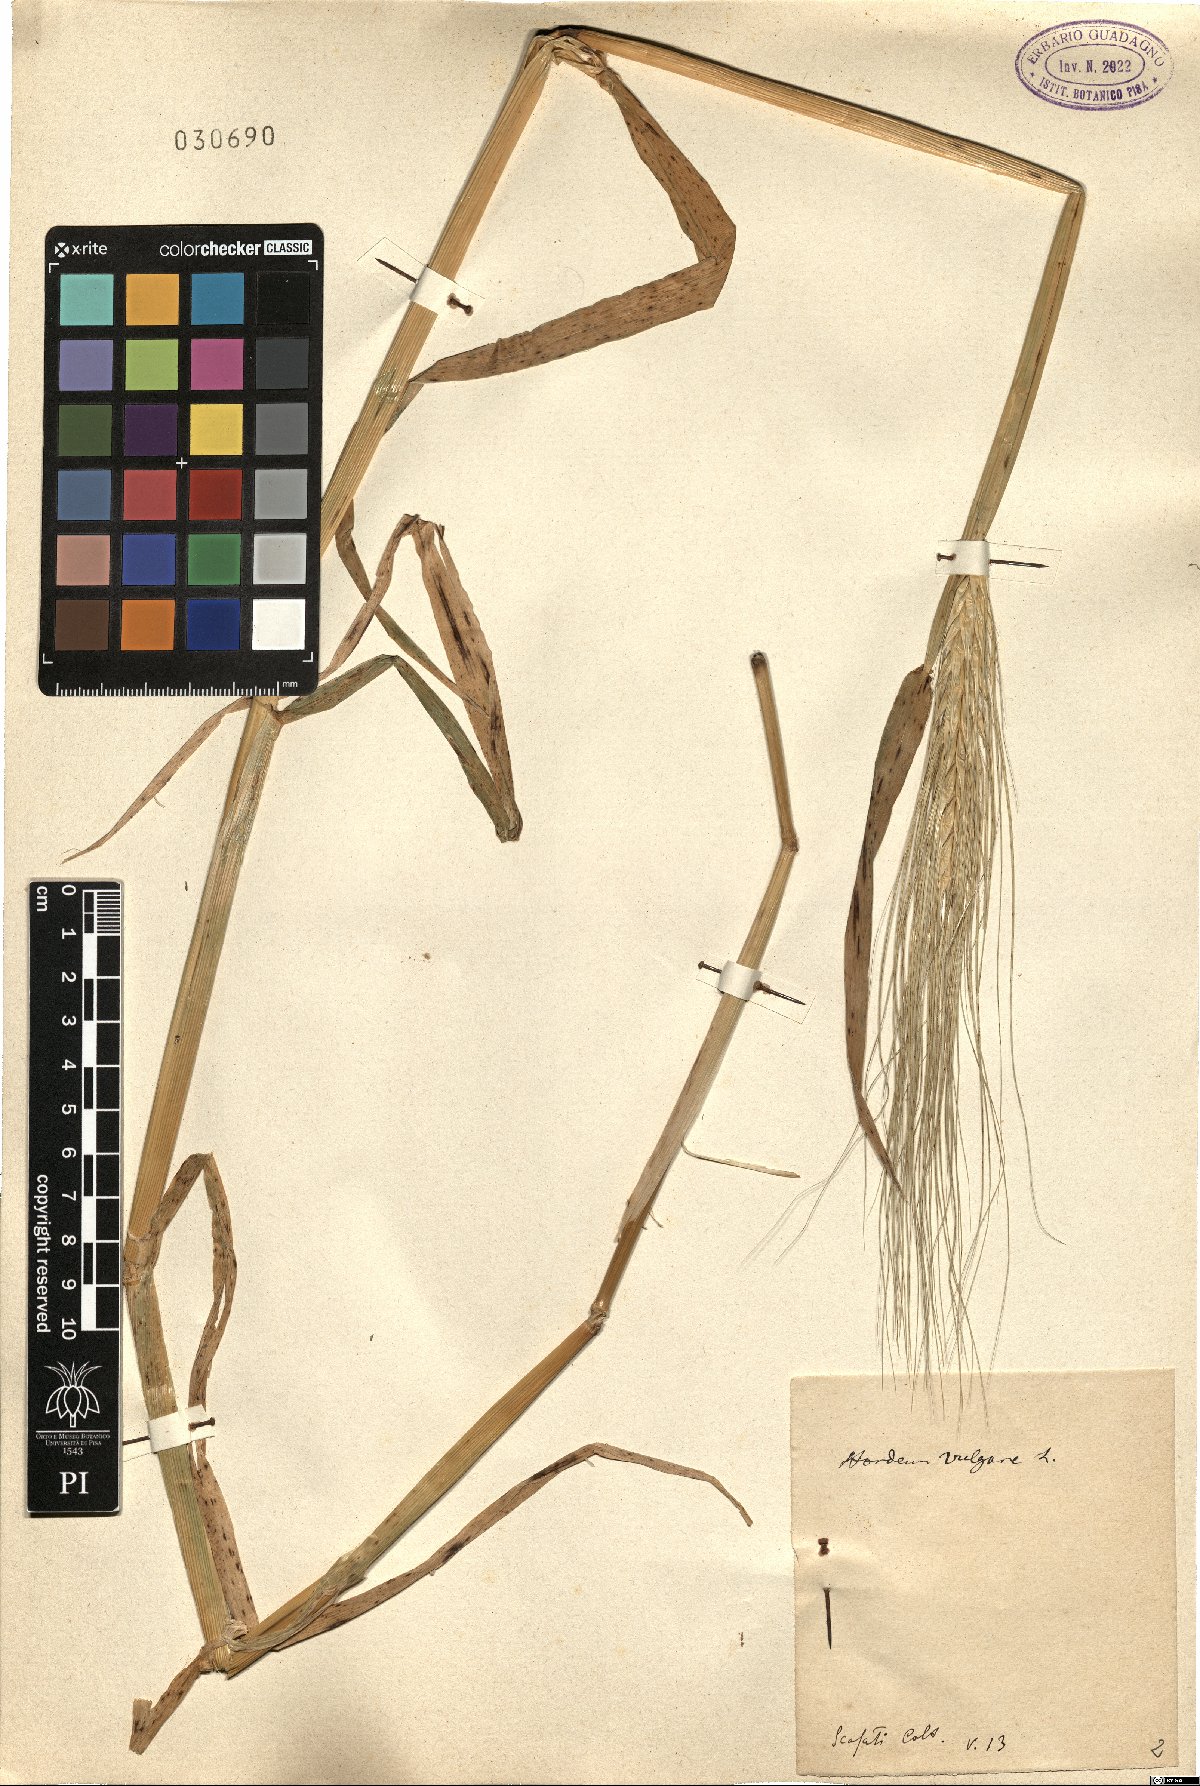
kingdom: Plantae
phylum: Tracheophyta
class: Liliopsida
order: Poales
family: Poaceae
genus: Hordeum
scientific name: Hordeum vulgare
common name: Common barley
